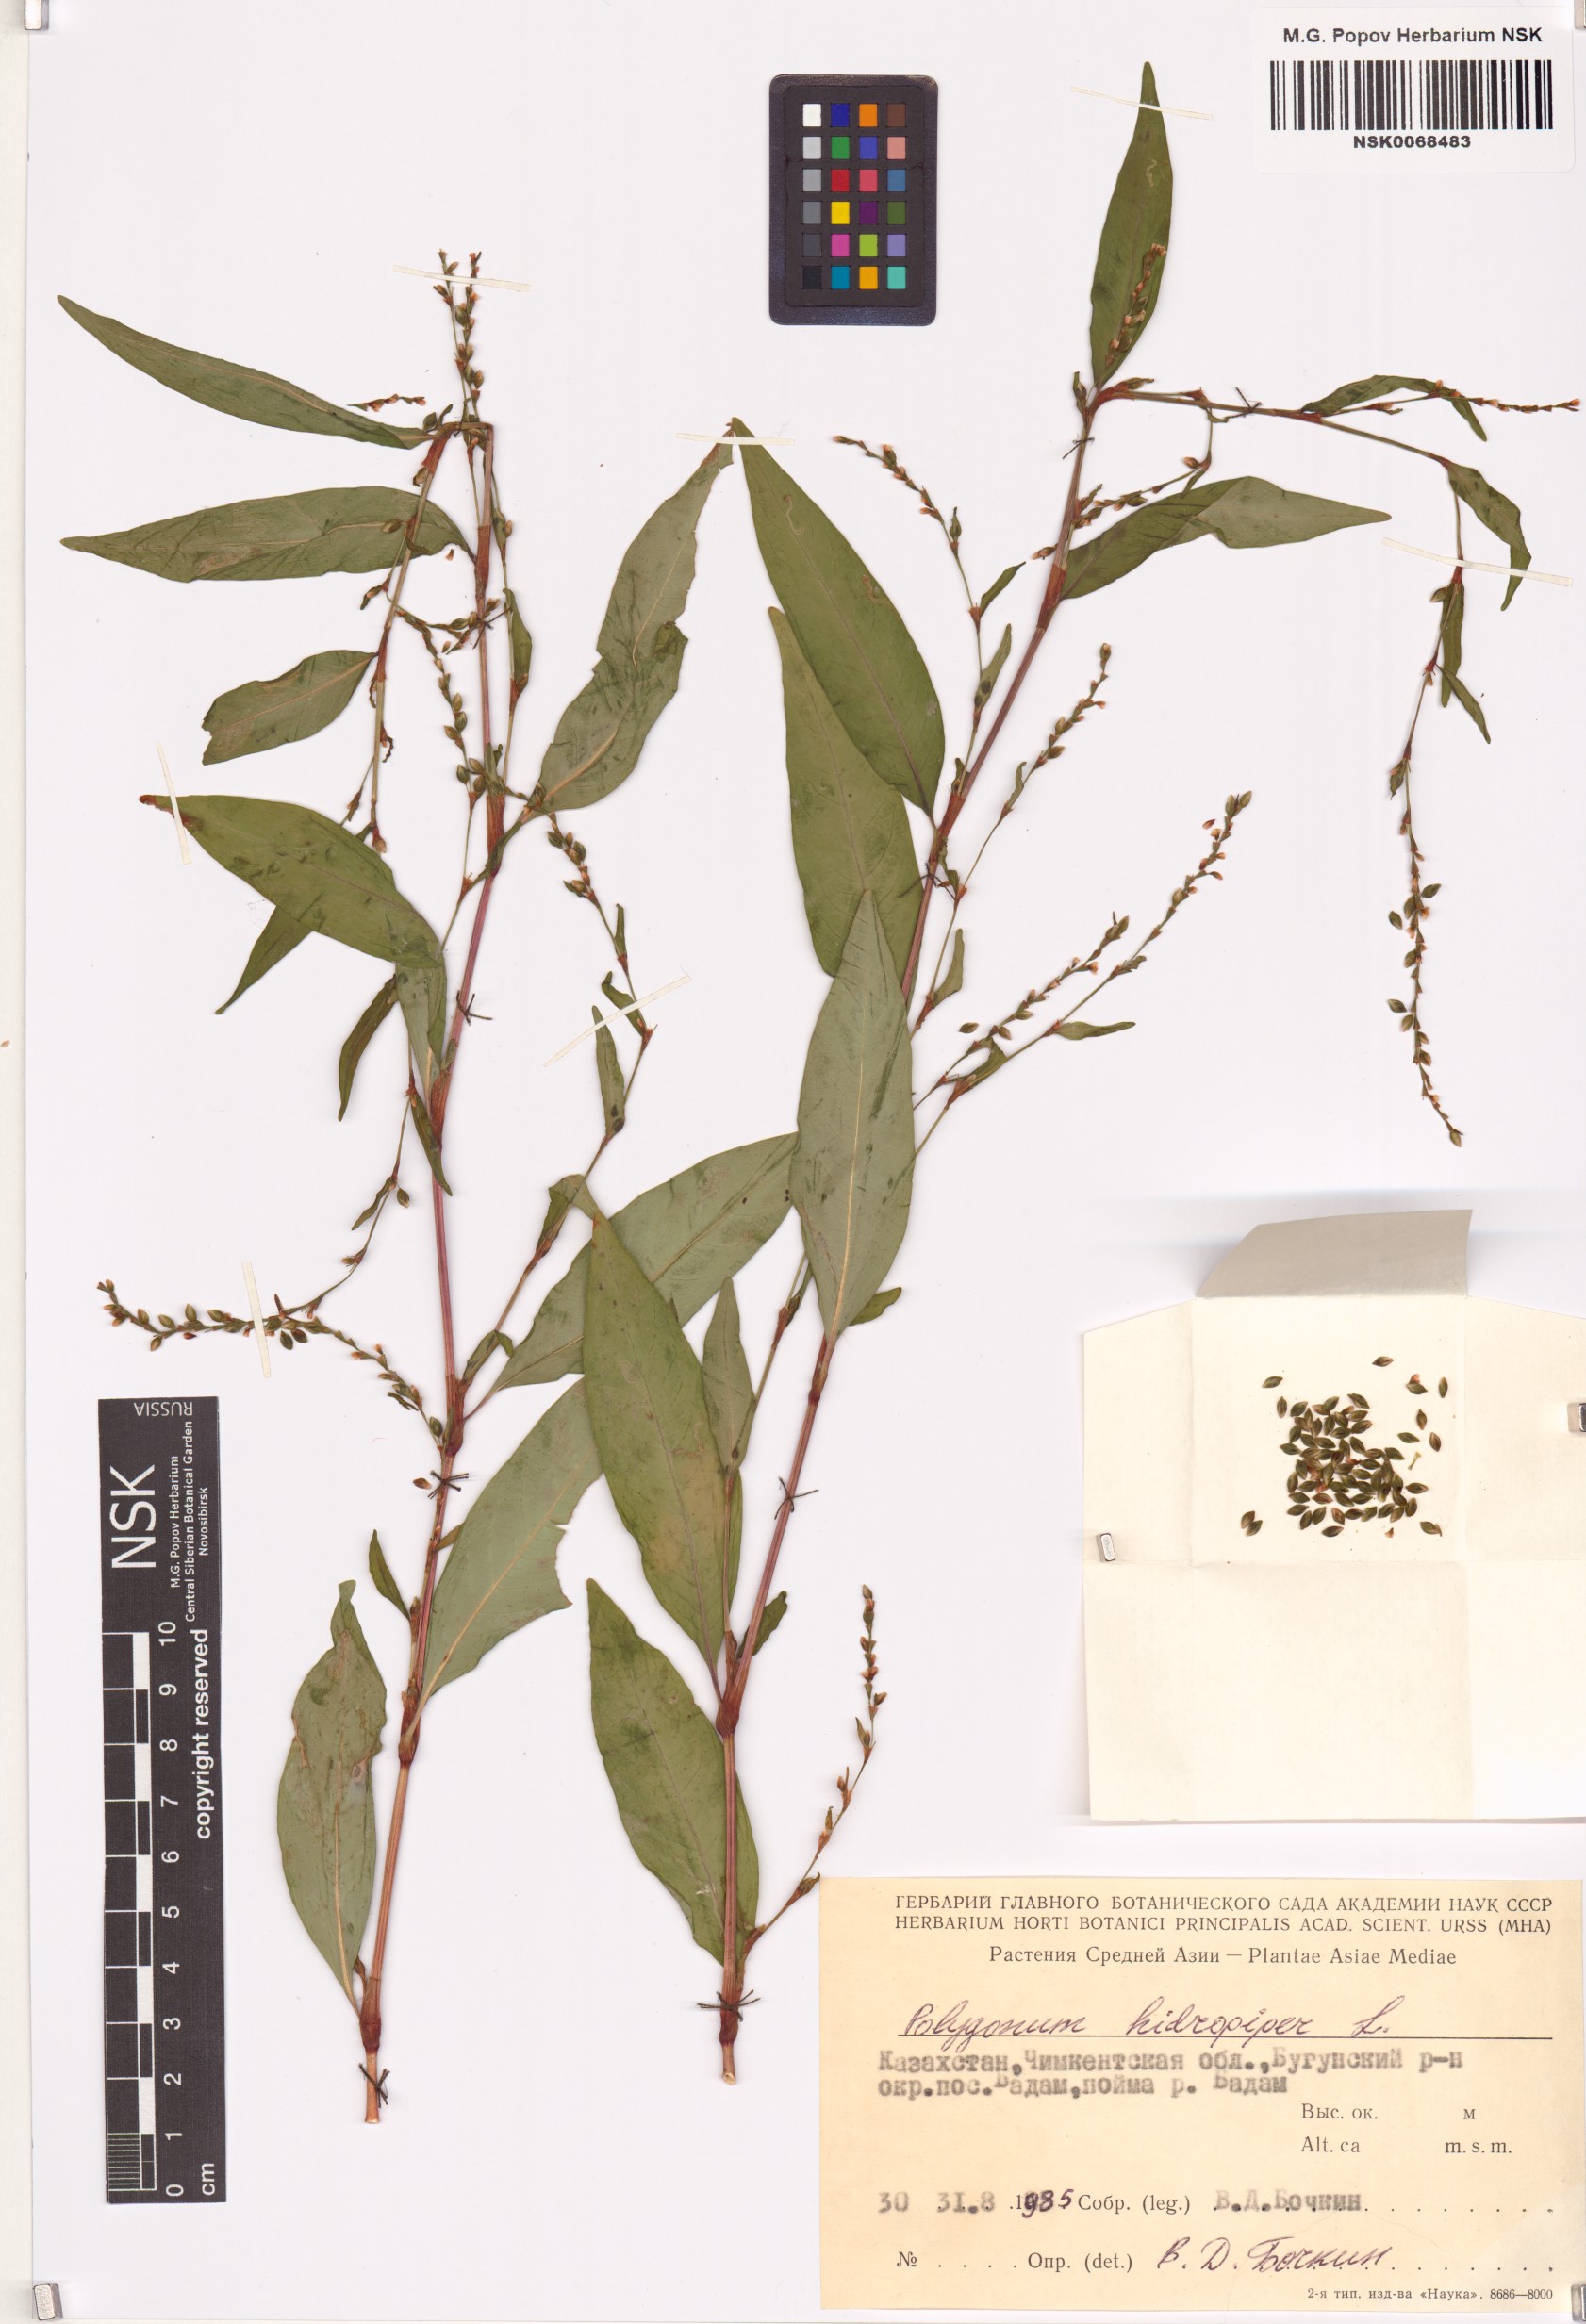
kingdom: Plantae
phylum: Tracheophyta
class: Magnoliopsida
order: Caryophyllales
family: Polygonaceae
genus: Persicaria
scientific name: Persicaria hydropiper
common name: Water-pepper
